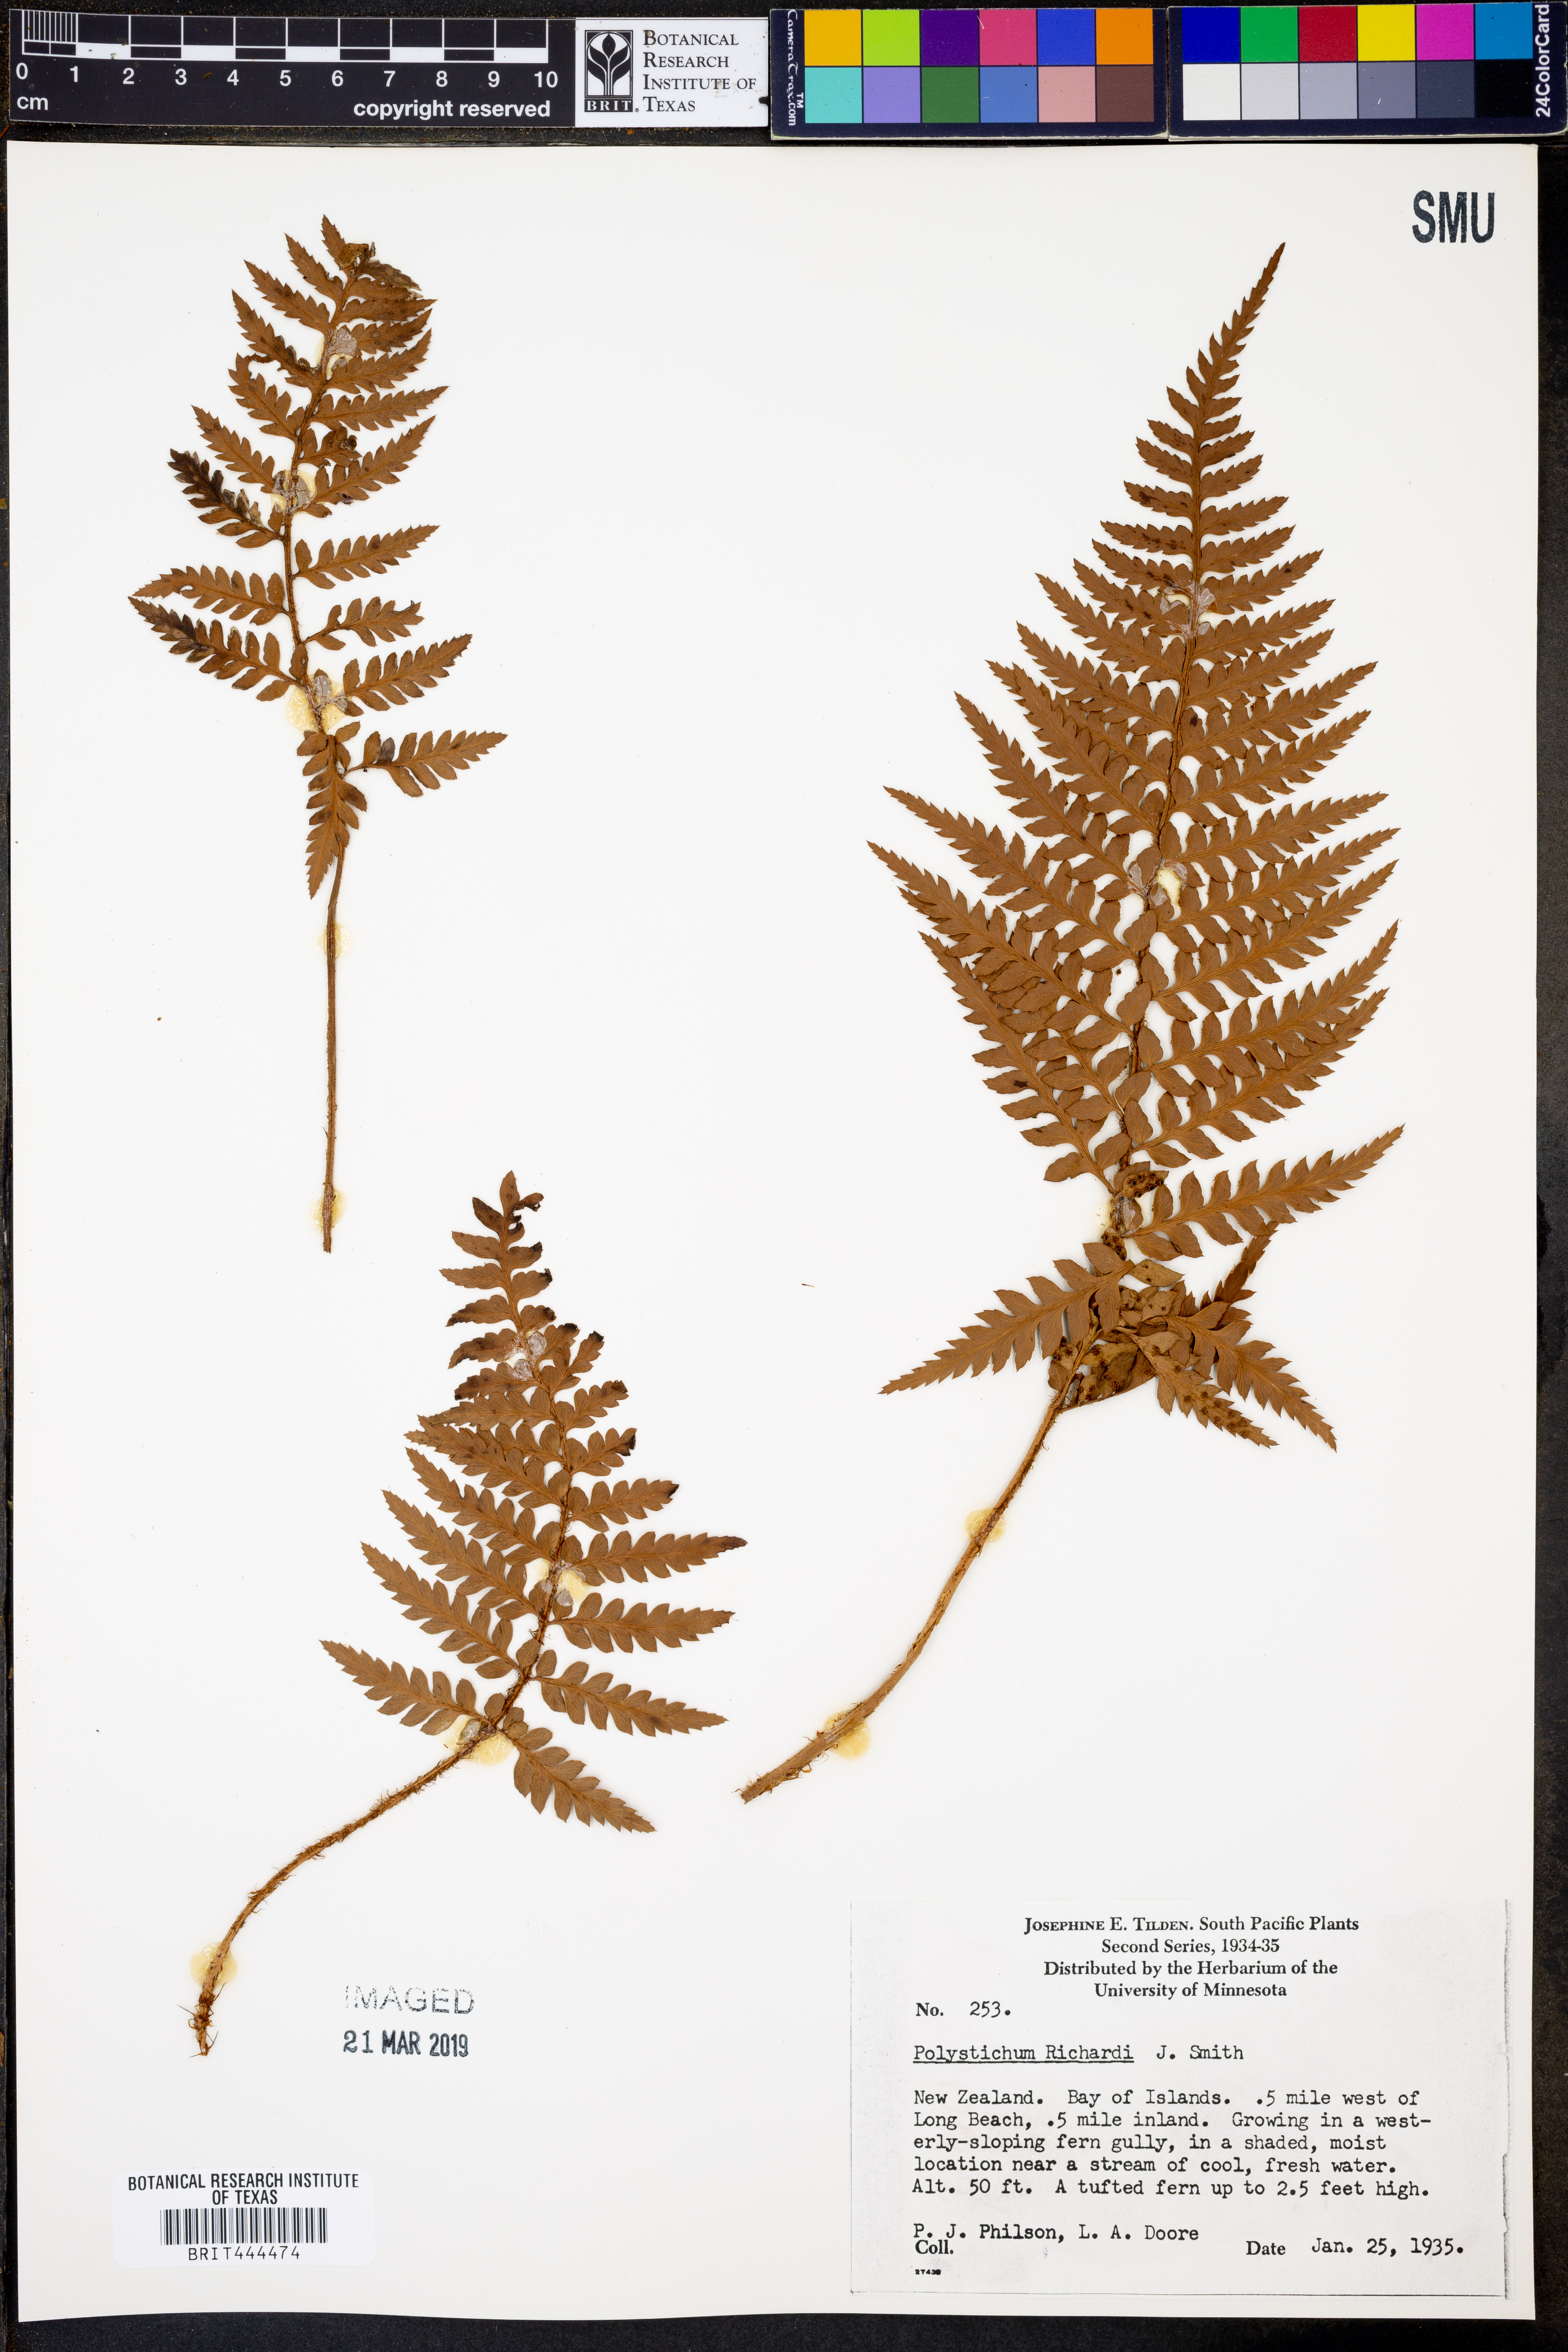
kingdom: Plantae
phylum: Tracheophyta
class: Polypodiopsida
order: Polypodiales
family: Dryopteridaceae
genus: Polystichum
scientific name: Polystichum neozelandicum
